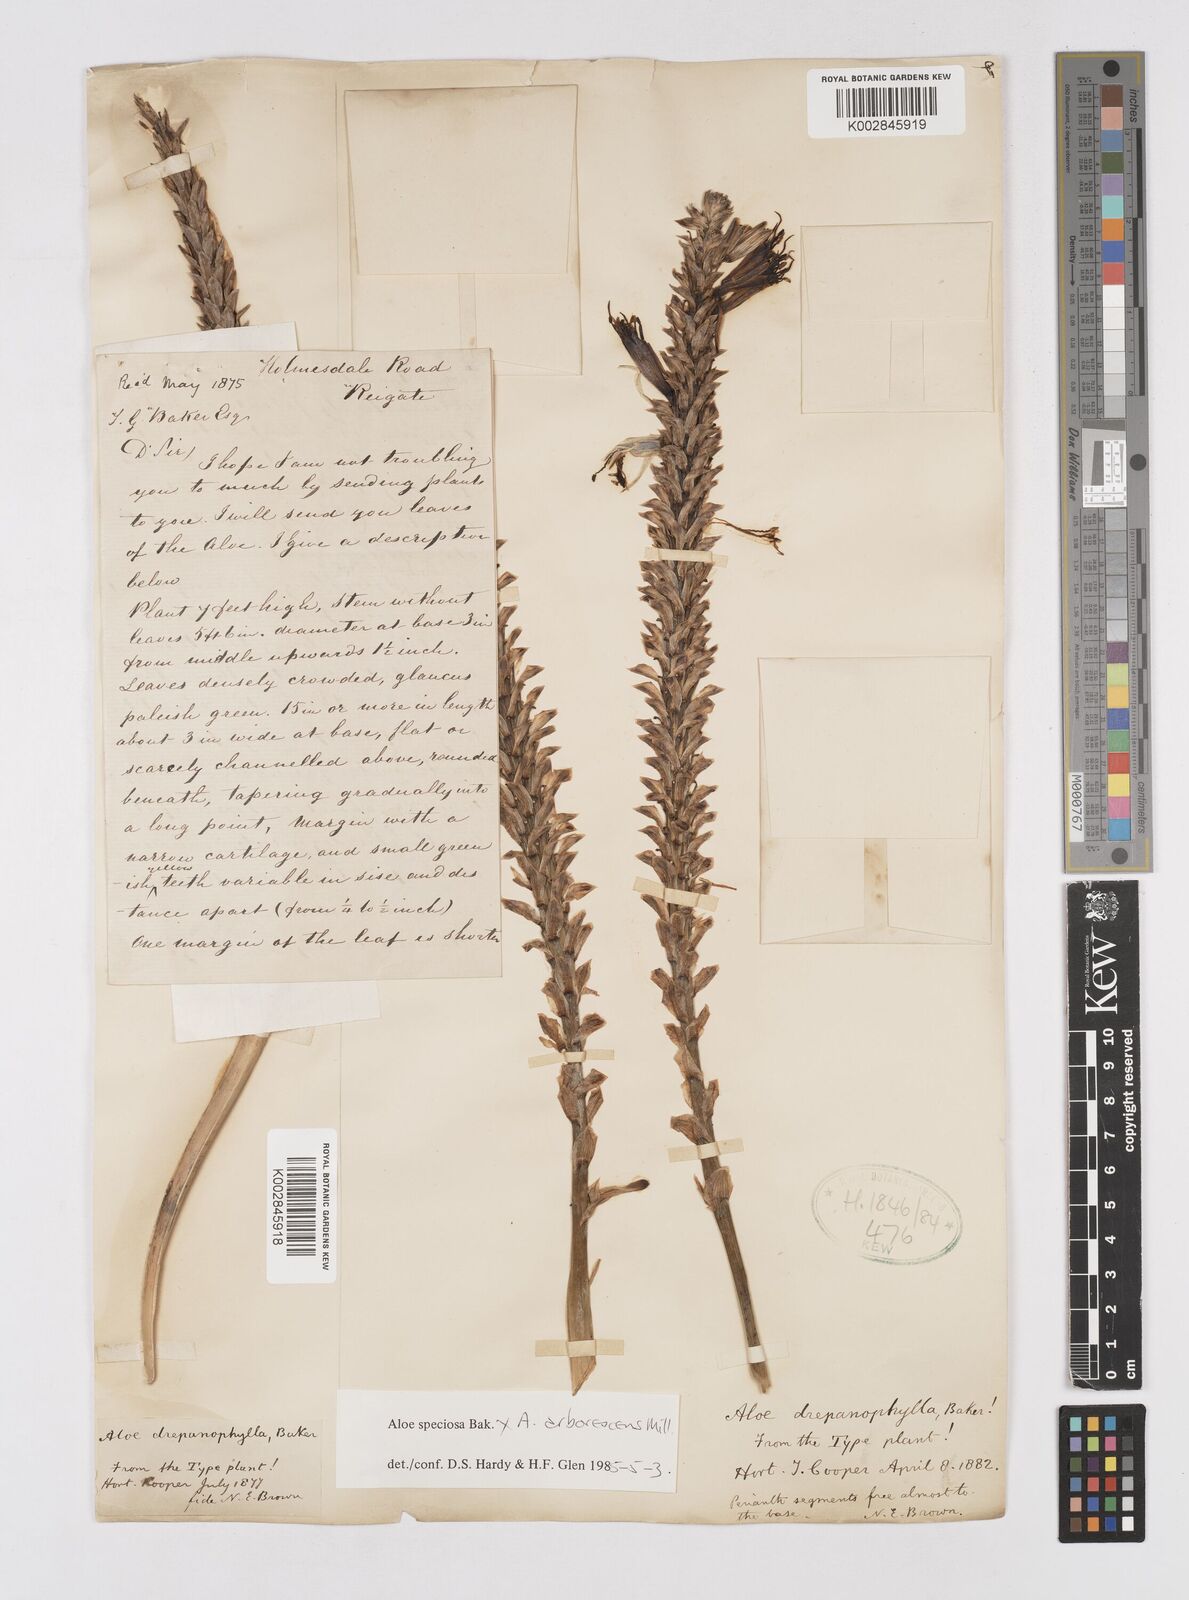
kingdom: Plantae
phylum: Tracheophyta
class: Liliopsida
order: Asparagales
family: Asphodelaceae
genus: Aloe
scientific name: Aloe speciosa
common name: Beautiful aloe
